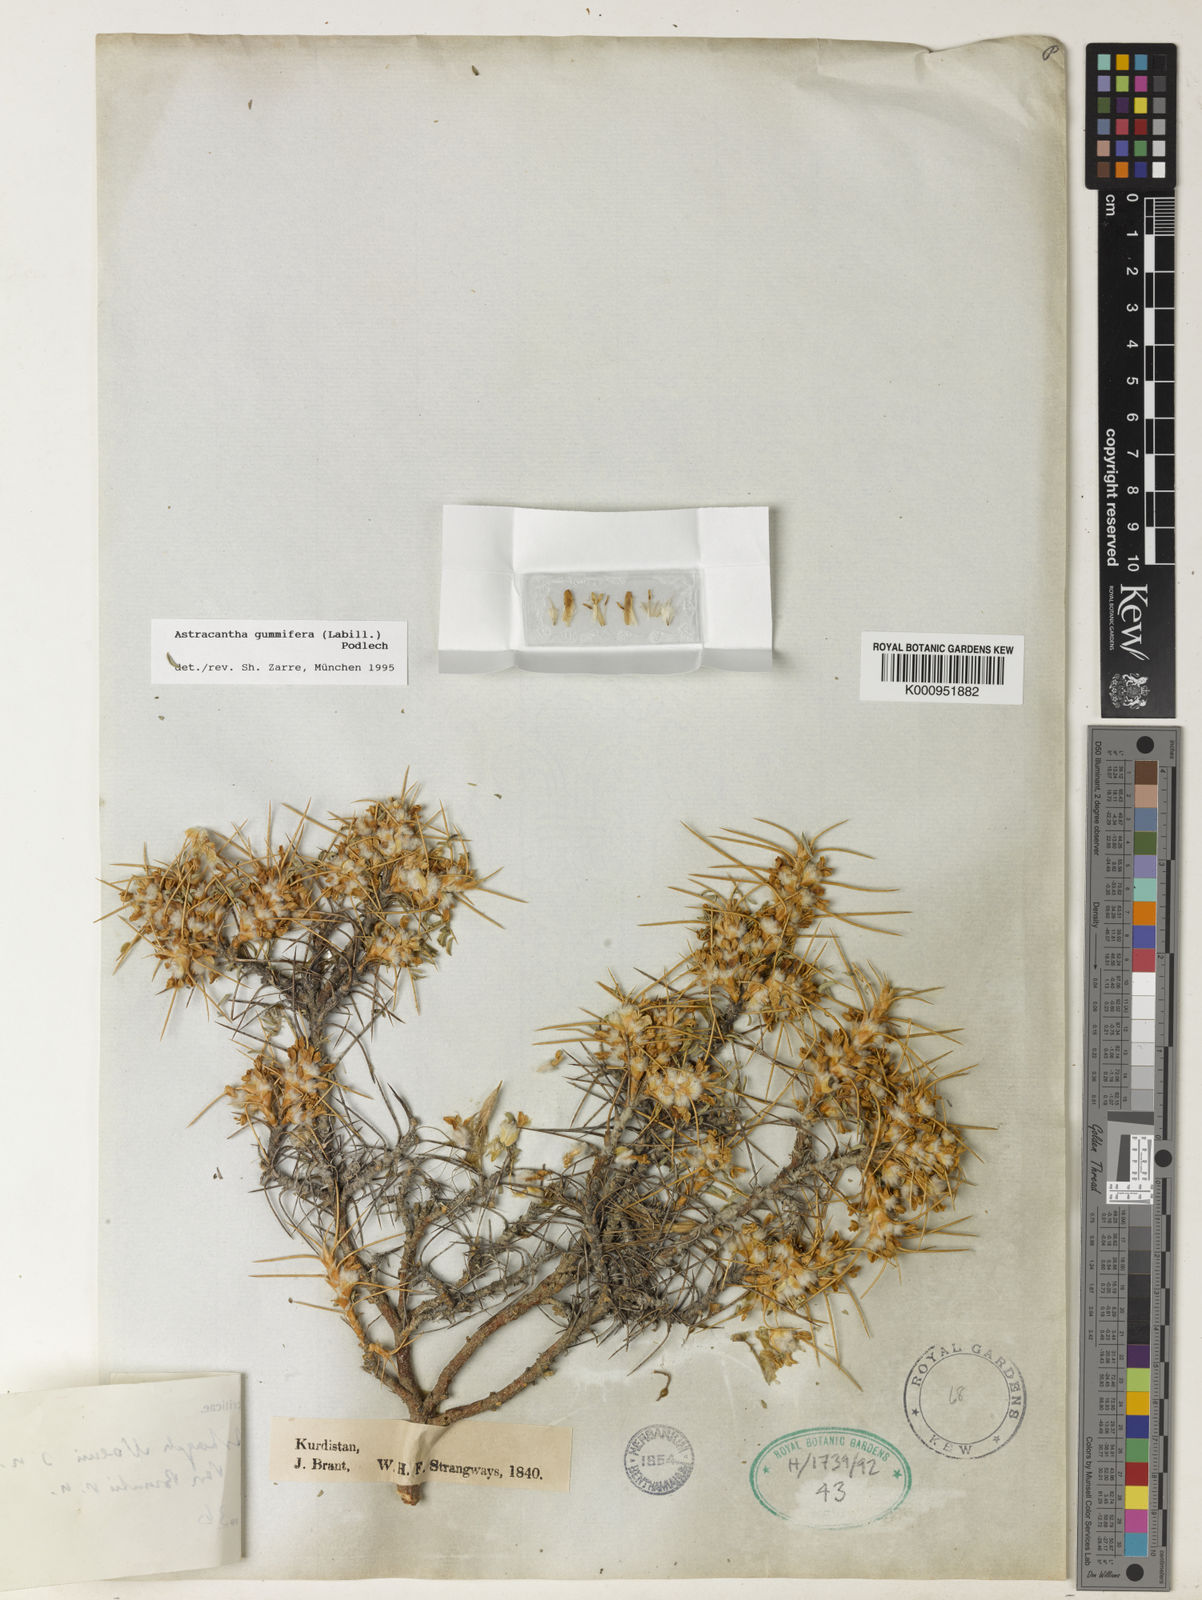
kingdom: Plantae
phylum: Tracheophyta
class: Magnoliopsida
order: Fabales
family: Fabaceae
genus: Astragalus
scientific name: Astragalus gummifer
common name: Tragacanth
